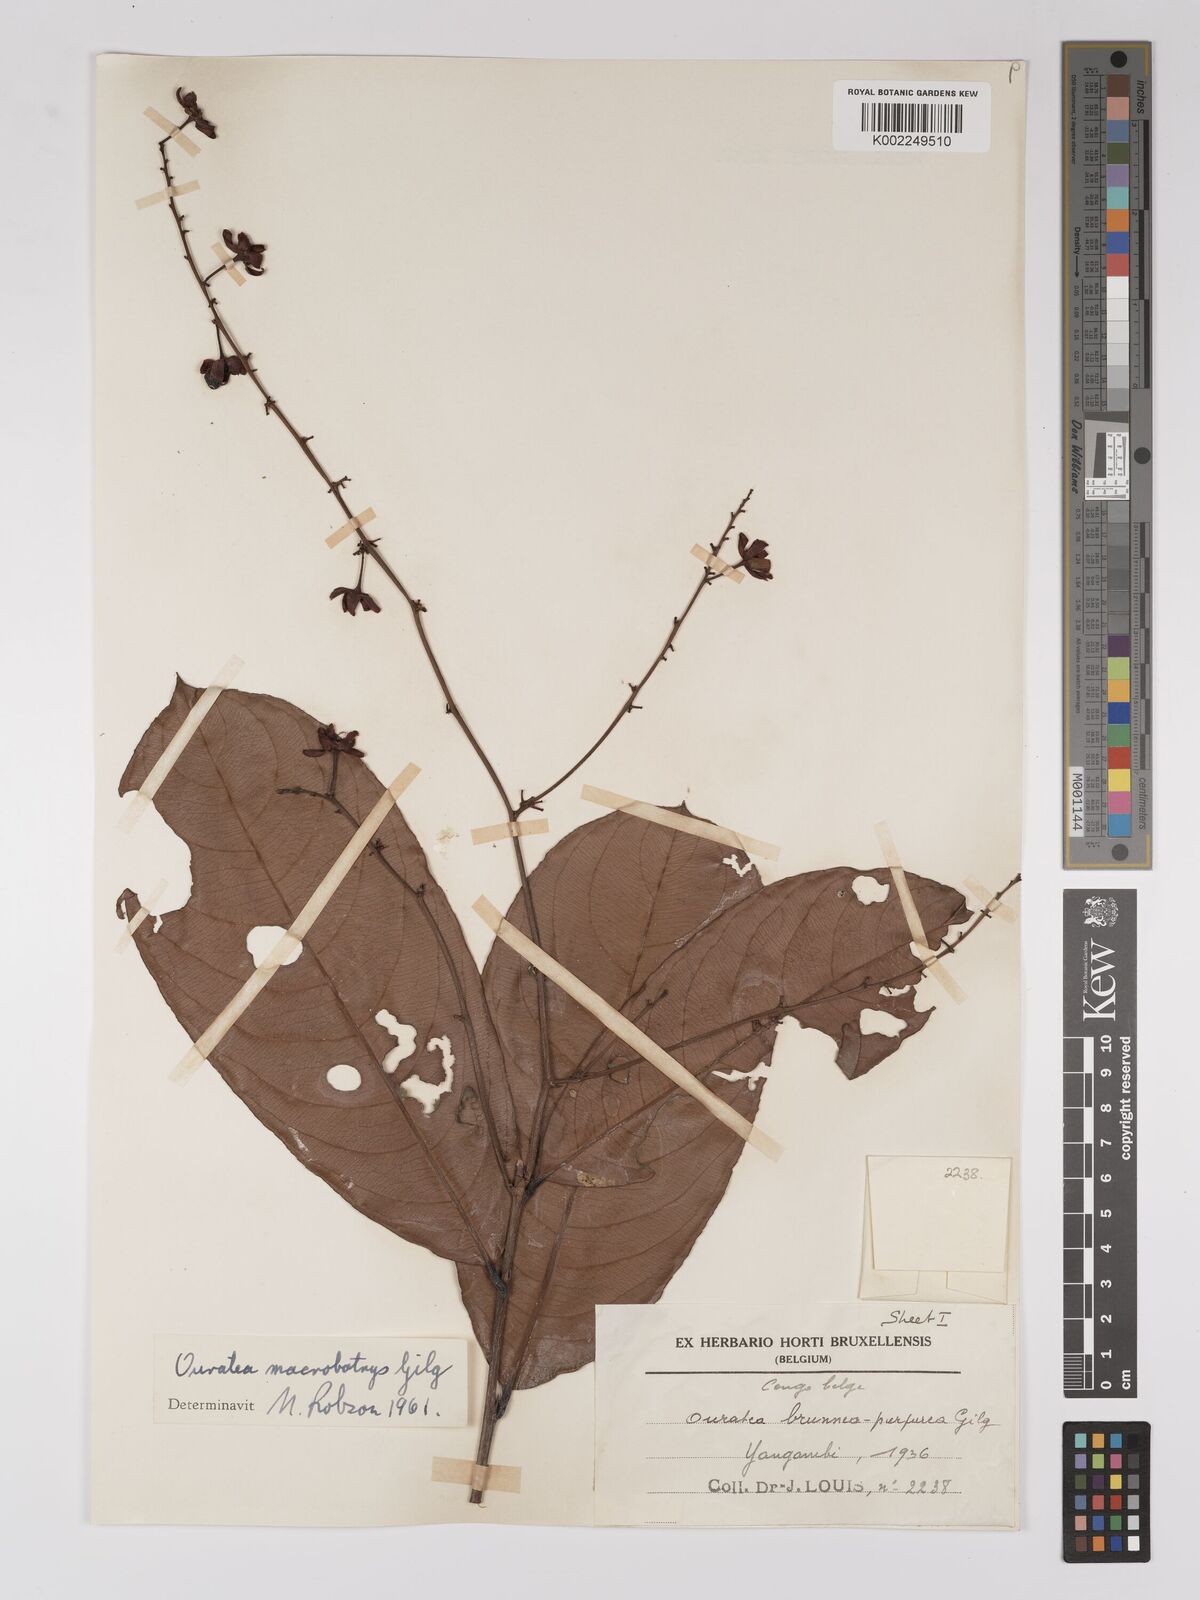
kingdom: Plantae
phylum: Tracheophyta
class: Magnoliopsida
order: Malpighiales
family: Ochnaceae
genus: Campylospermum
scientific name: Campylospermum laxiflorum
